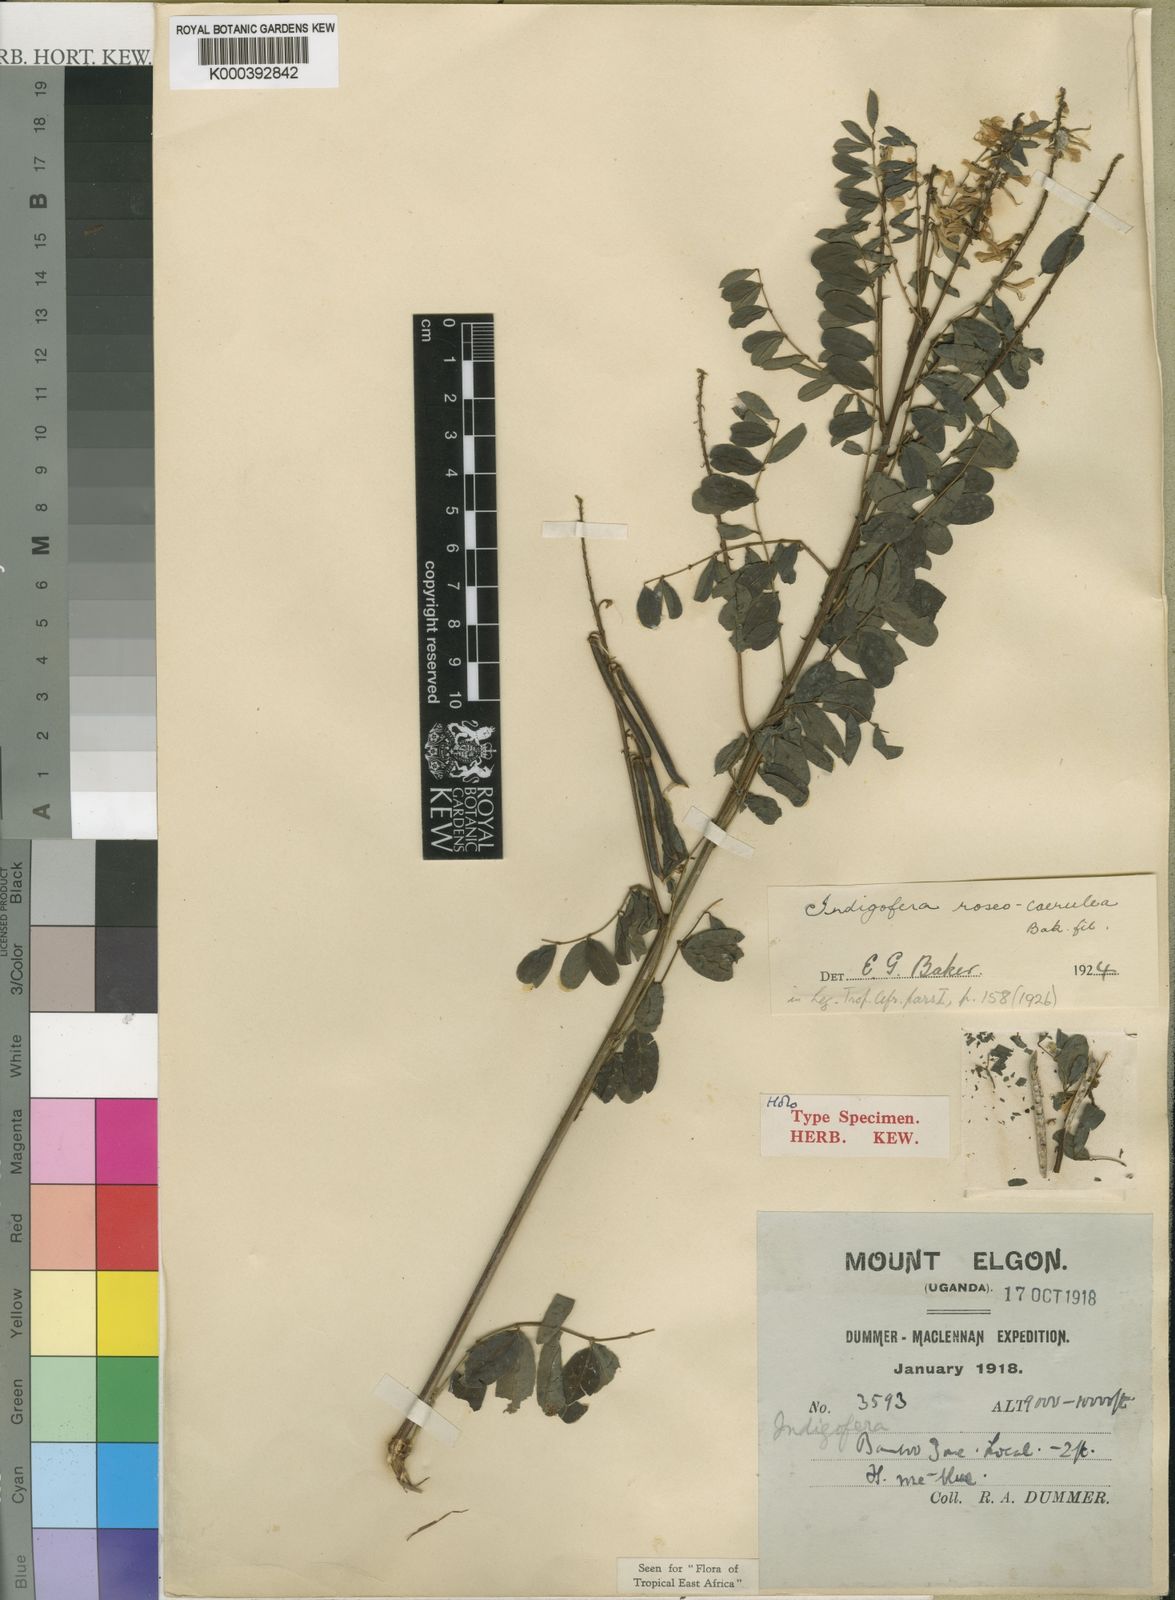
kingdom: Plantae
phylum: Tracheophyta
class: Magnoliopsida
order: Fabales
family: Fabaceae
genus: Indigofera
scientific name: Indigofera roseocaerulea
